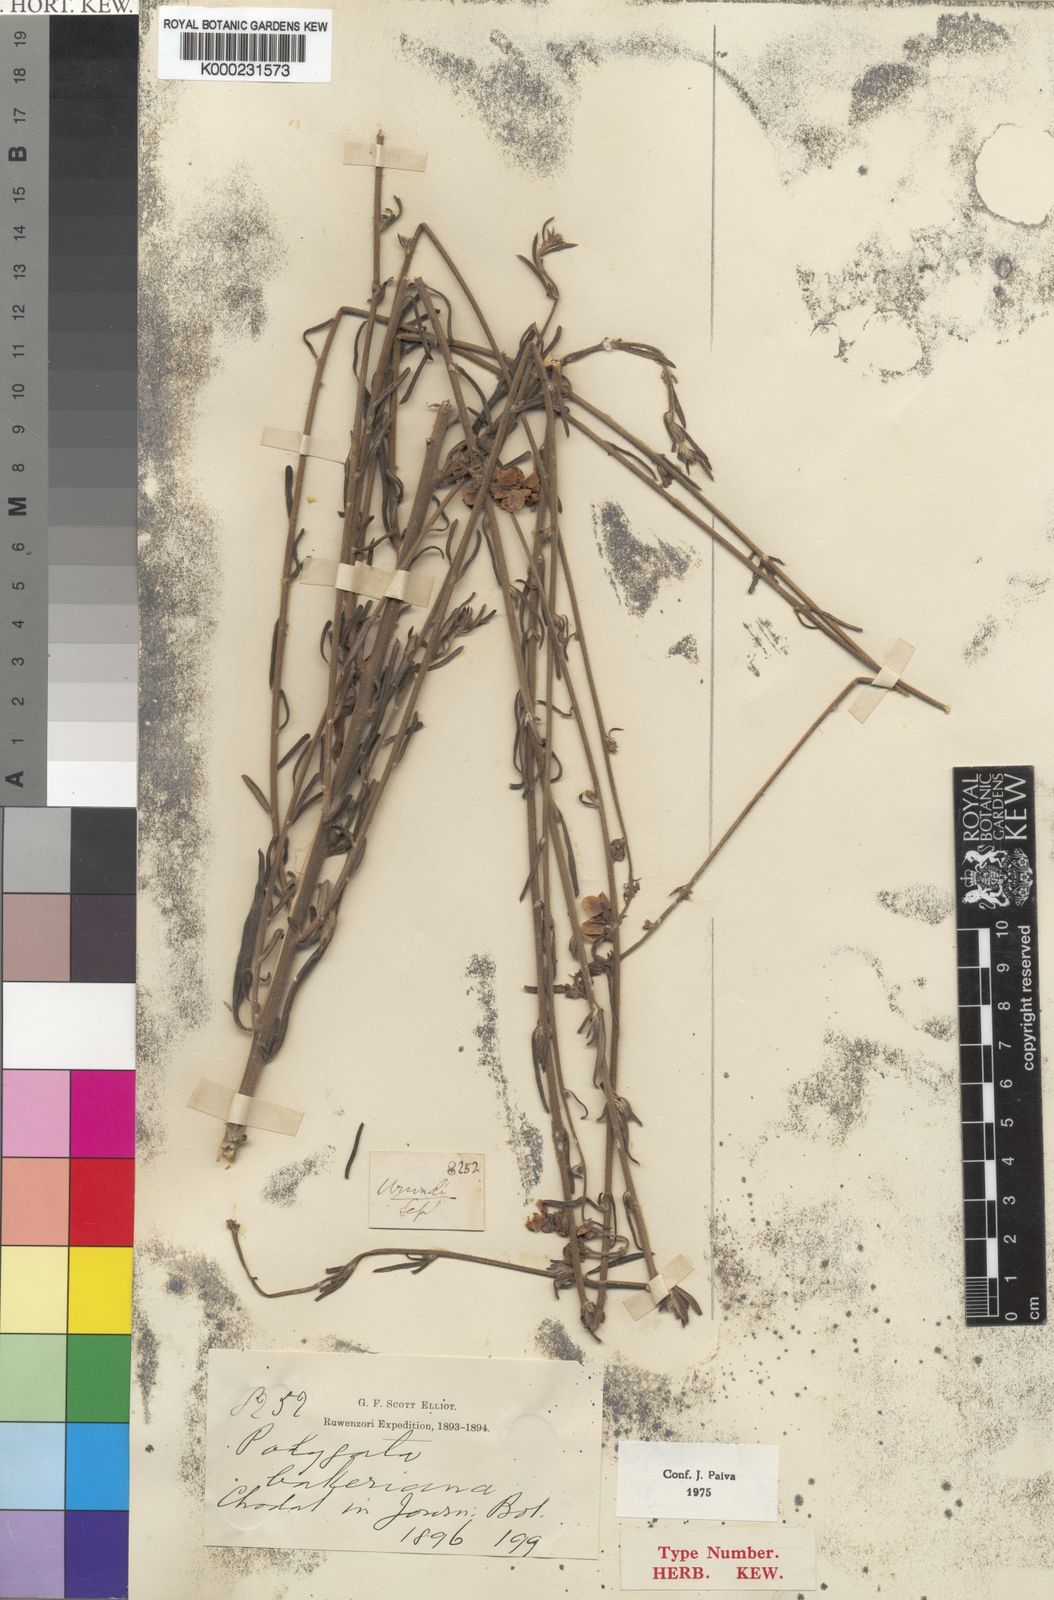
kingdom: Plantae
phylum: Tracheophyta
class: Magnoliopsida
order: Fabales
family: Polygalaceae
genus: Polygala
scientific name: Polygala bakeriana
